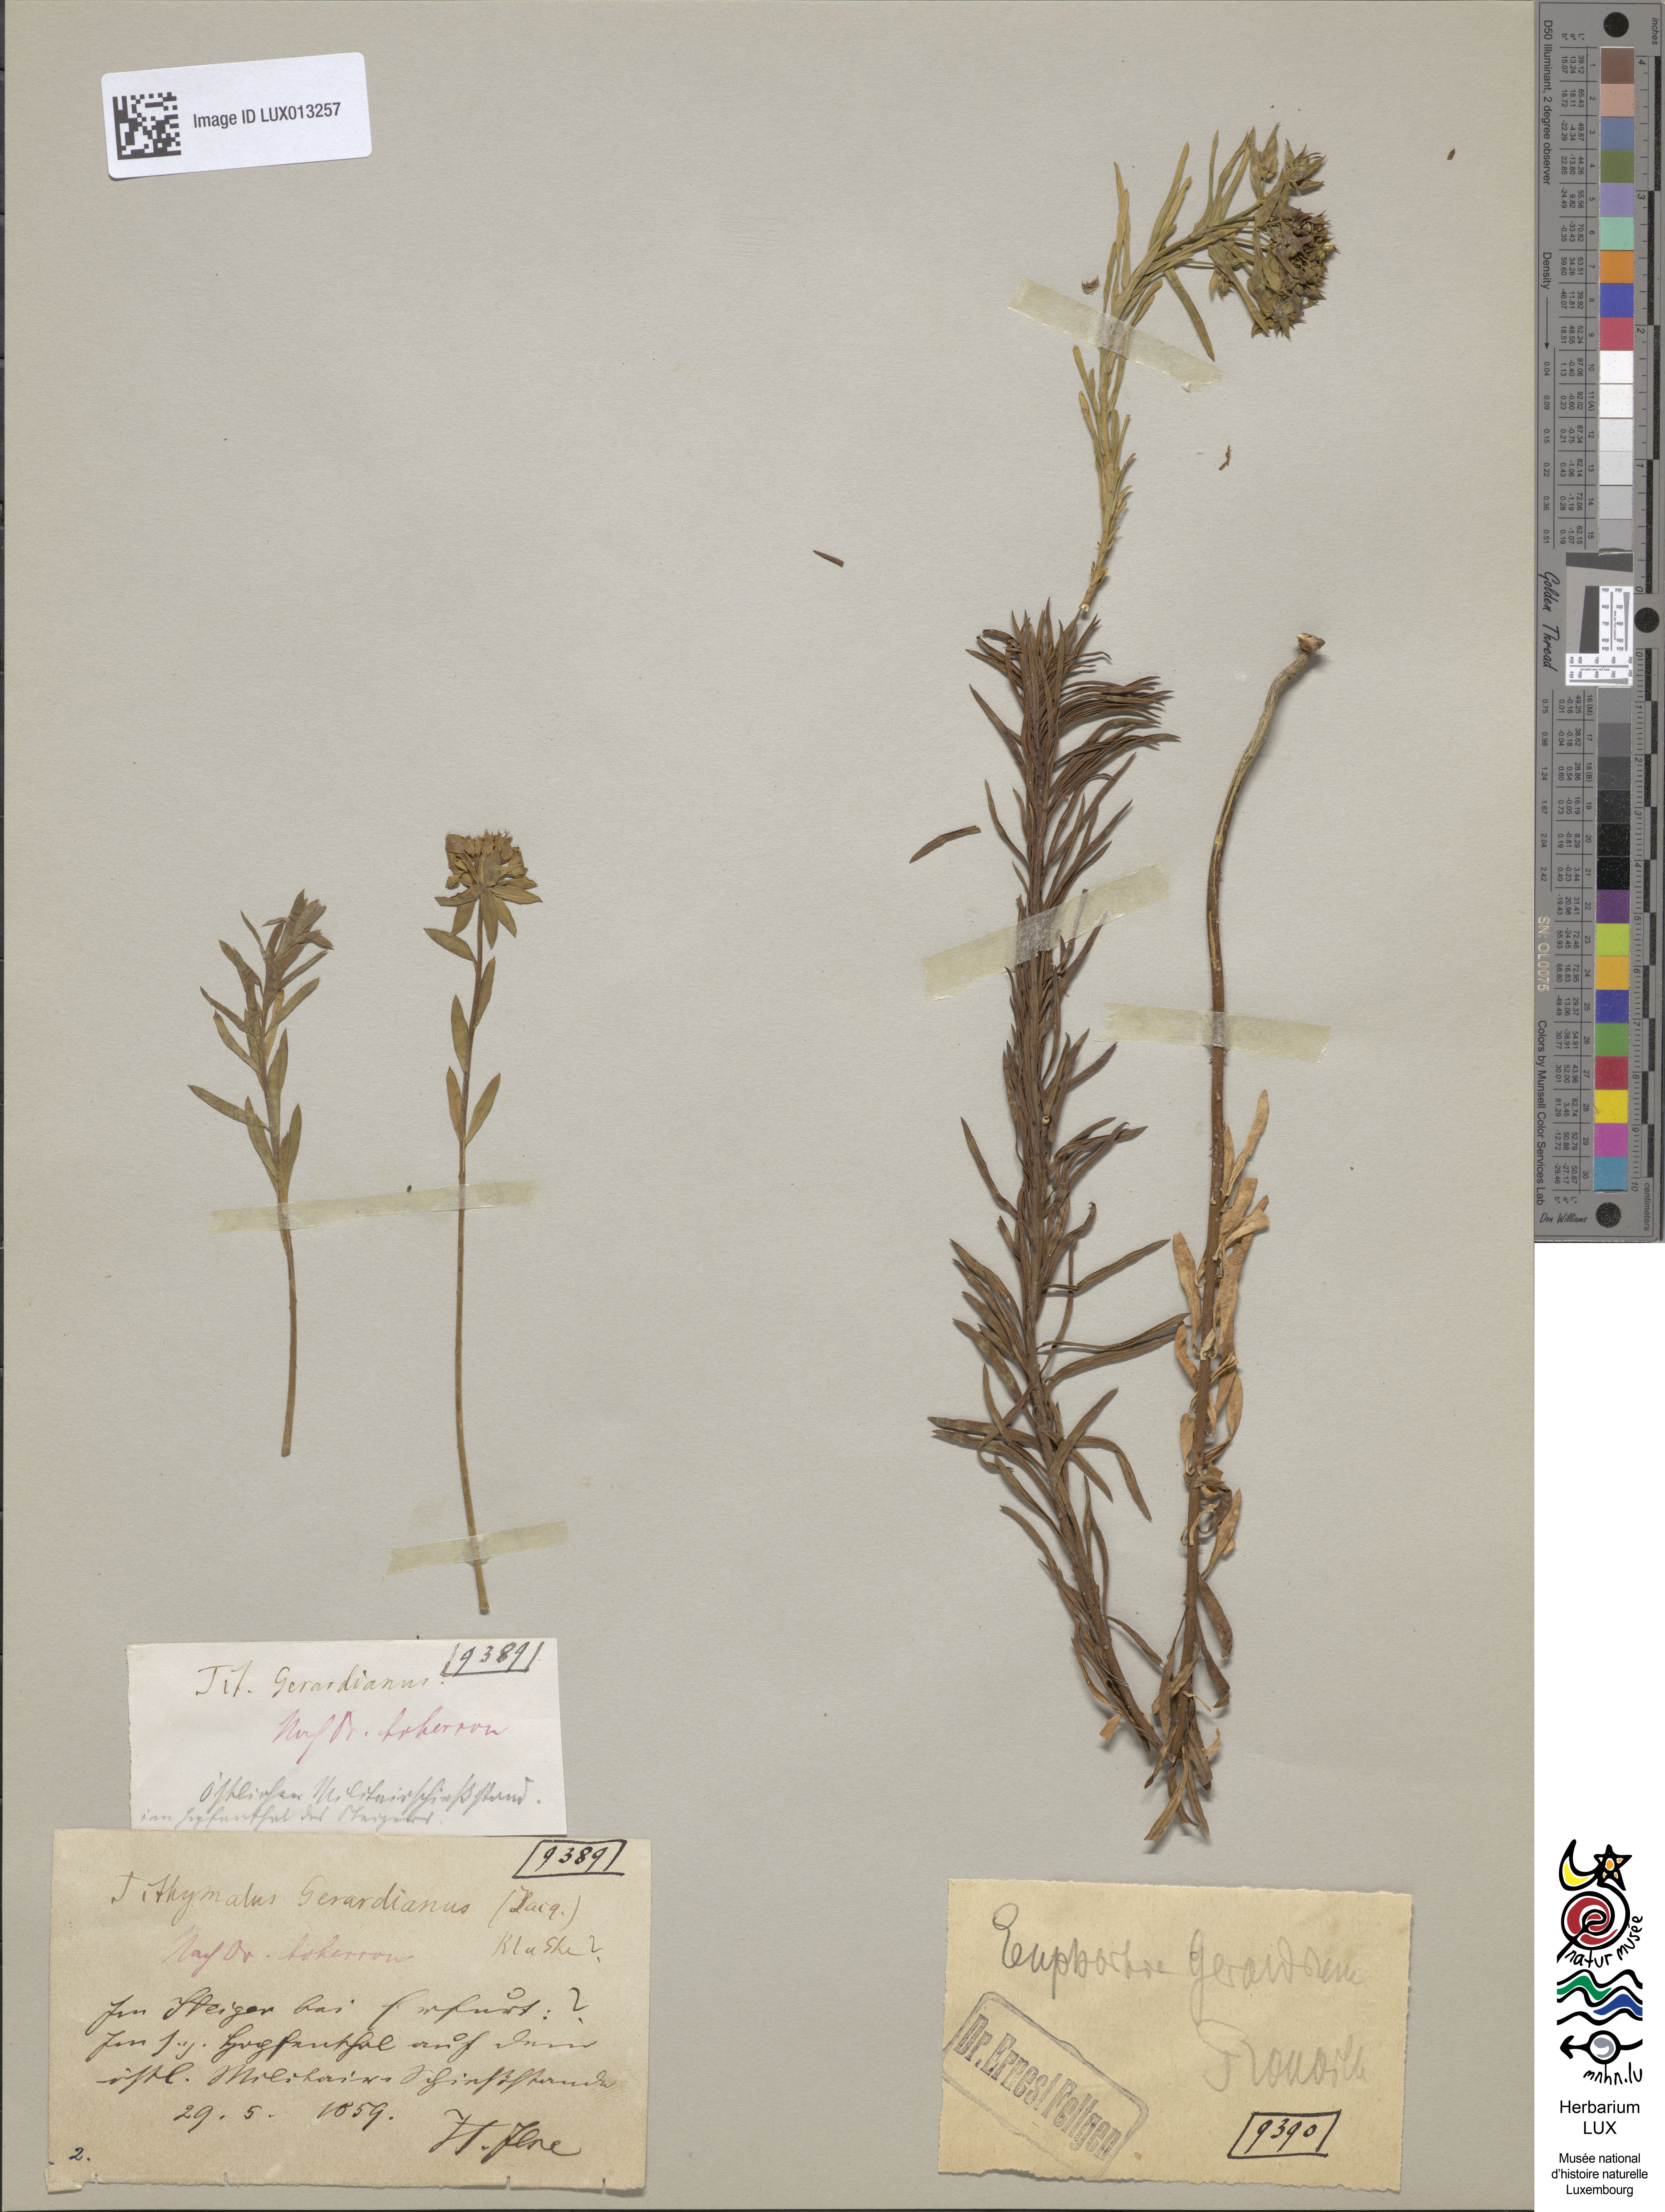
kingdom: Plantae
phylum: Tracheophyta
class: Magnoliopsida
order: Malpighiales
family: Euphorbiaceae
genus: Euphorbia
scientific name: Euphorbia seguieriana
